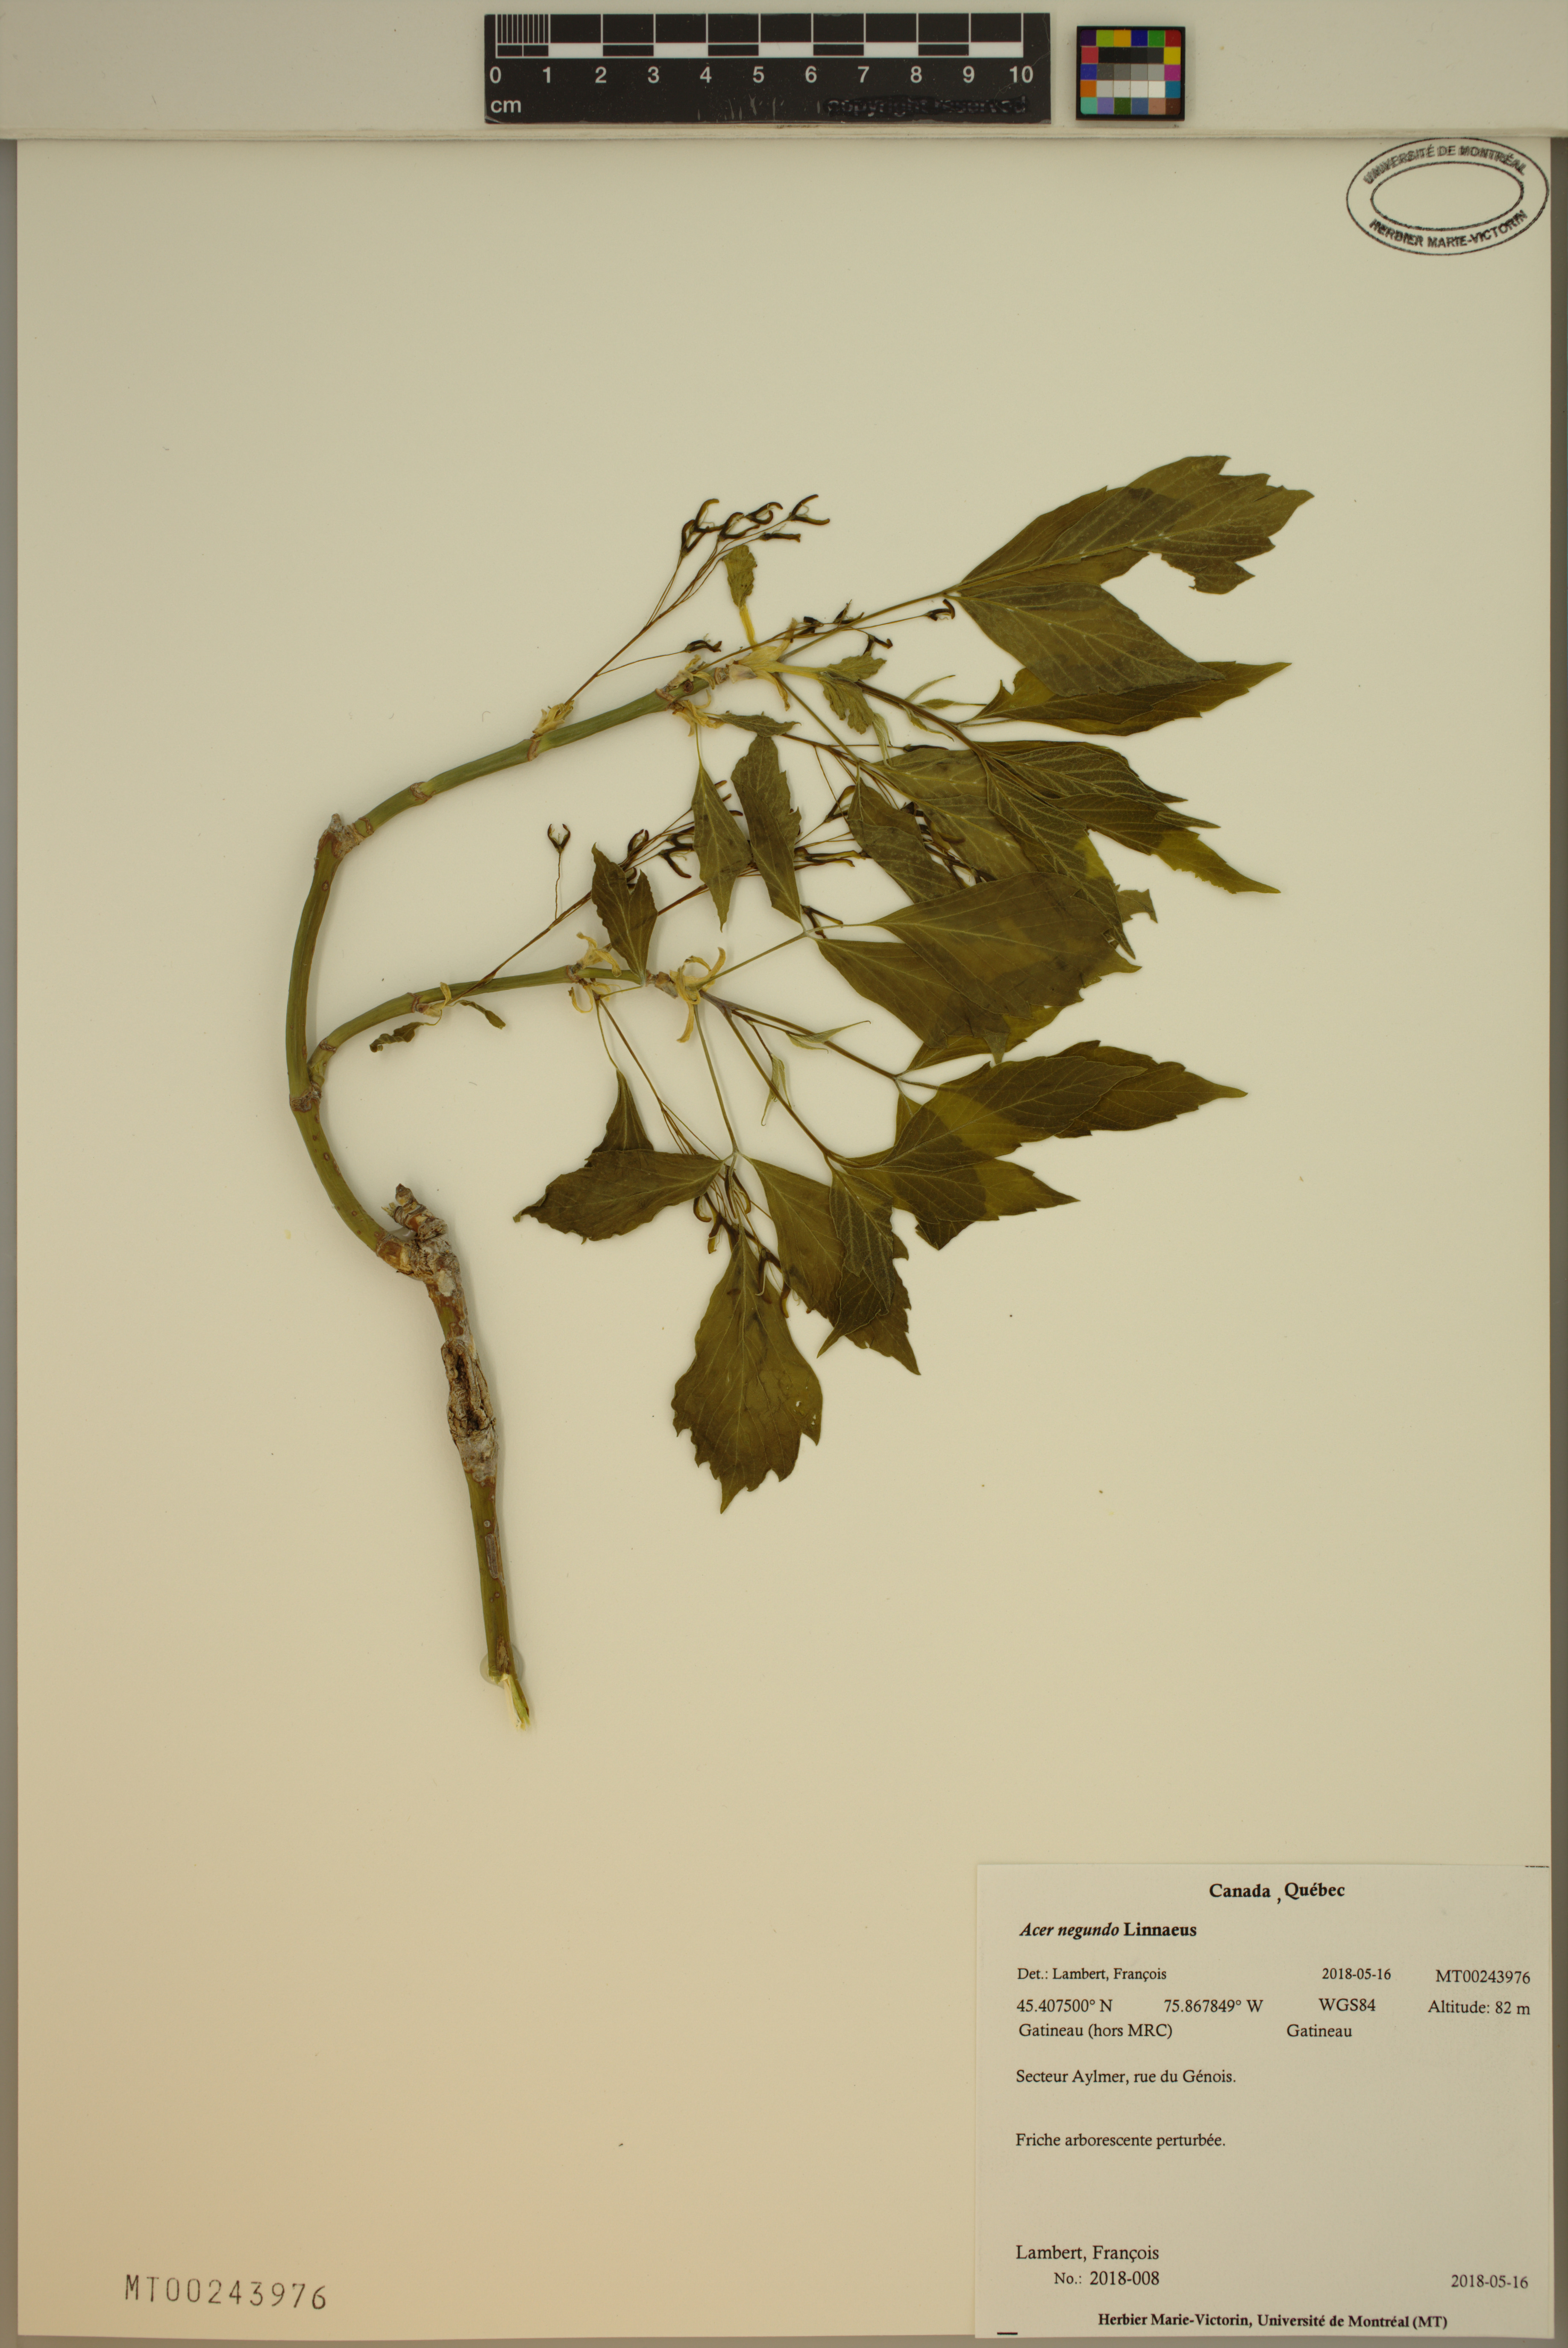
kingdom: Plantae
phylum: Tracheophyta
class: Magnoliopsida
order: Sapindales
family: Sapindaceae
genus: Acer
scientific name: Acer negundo
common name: Ashleaf maple
